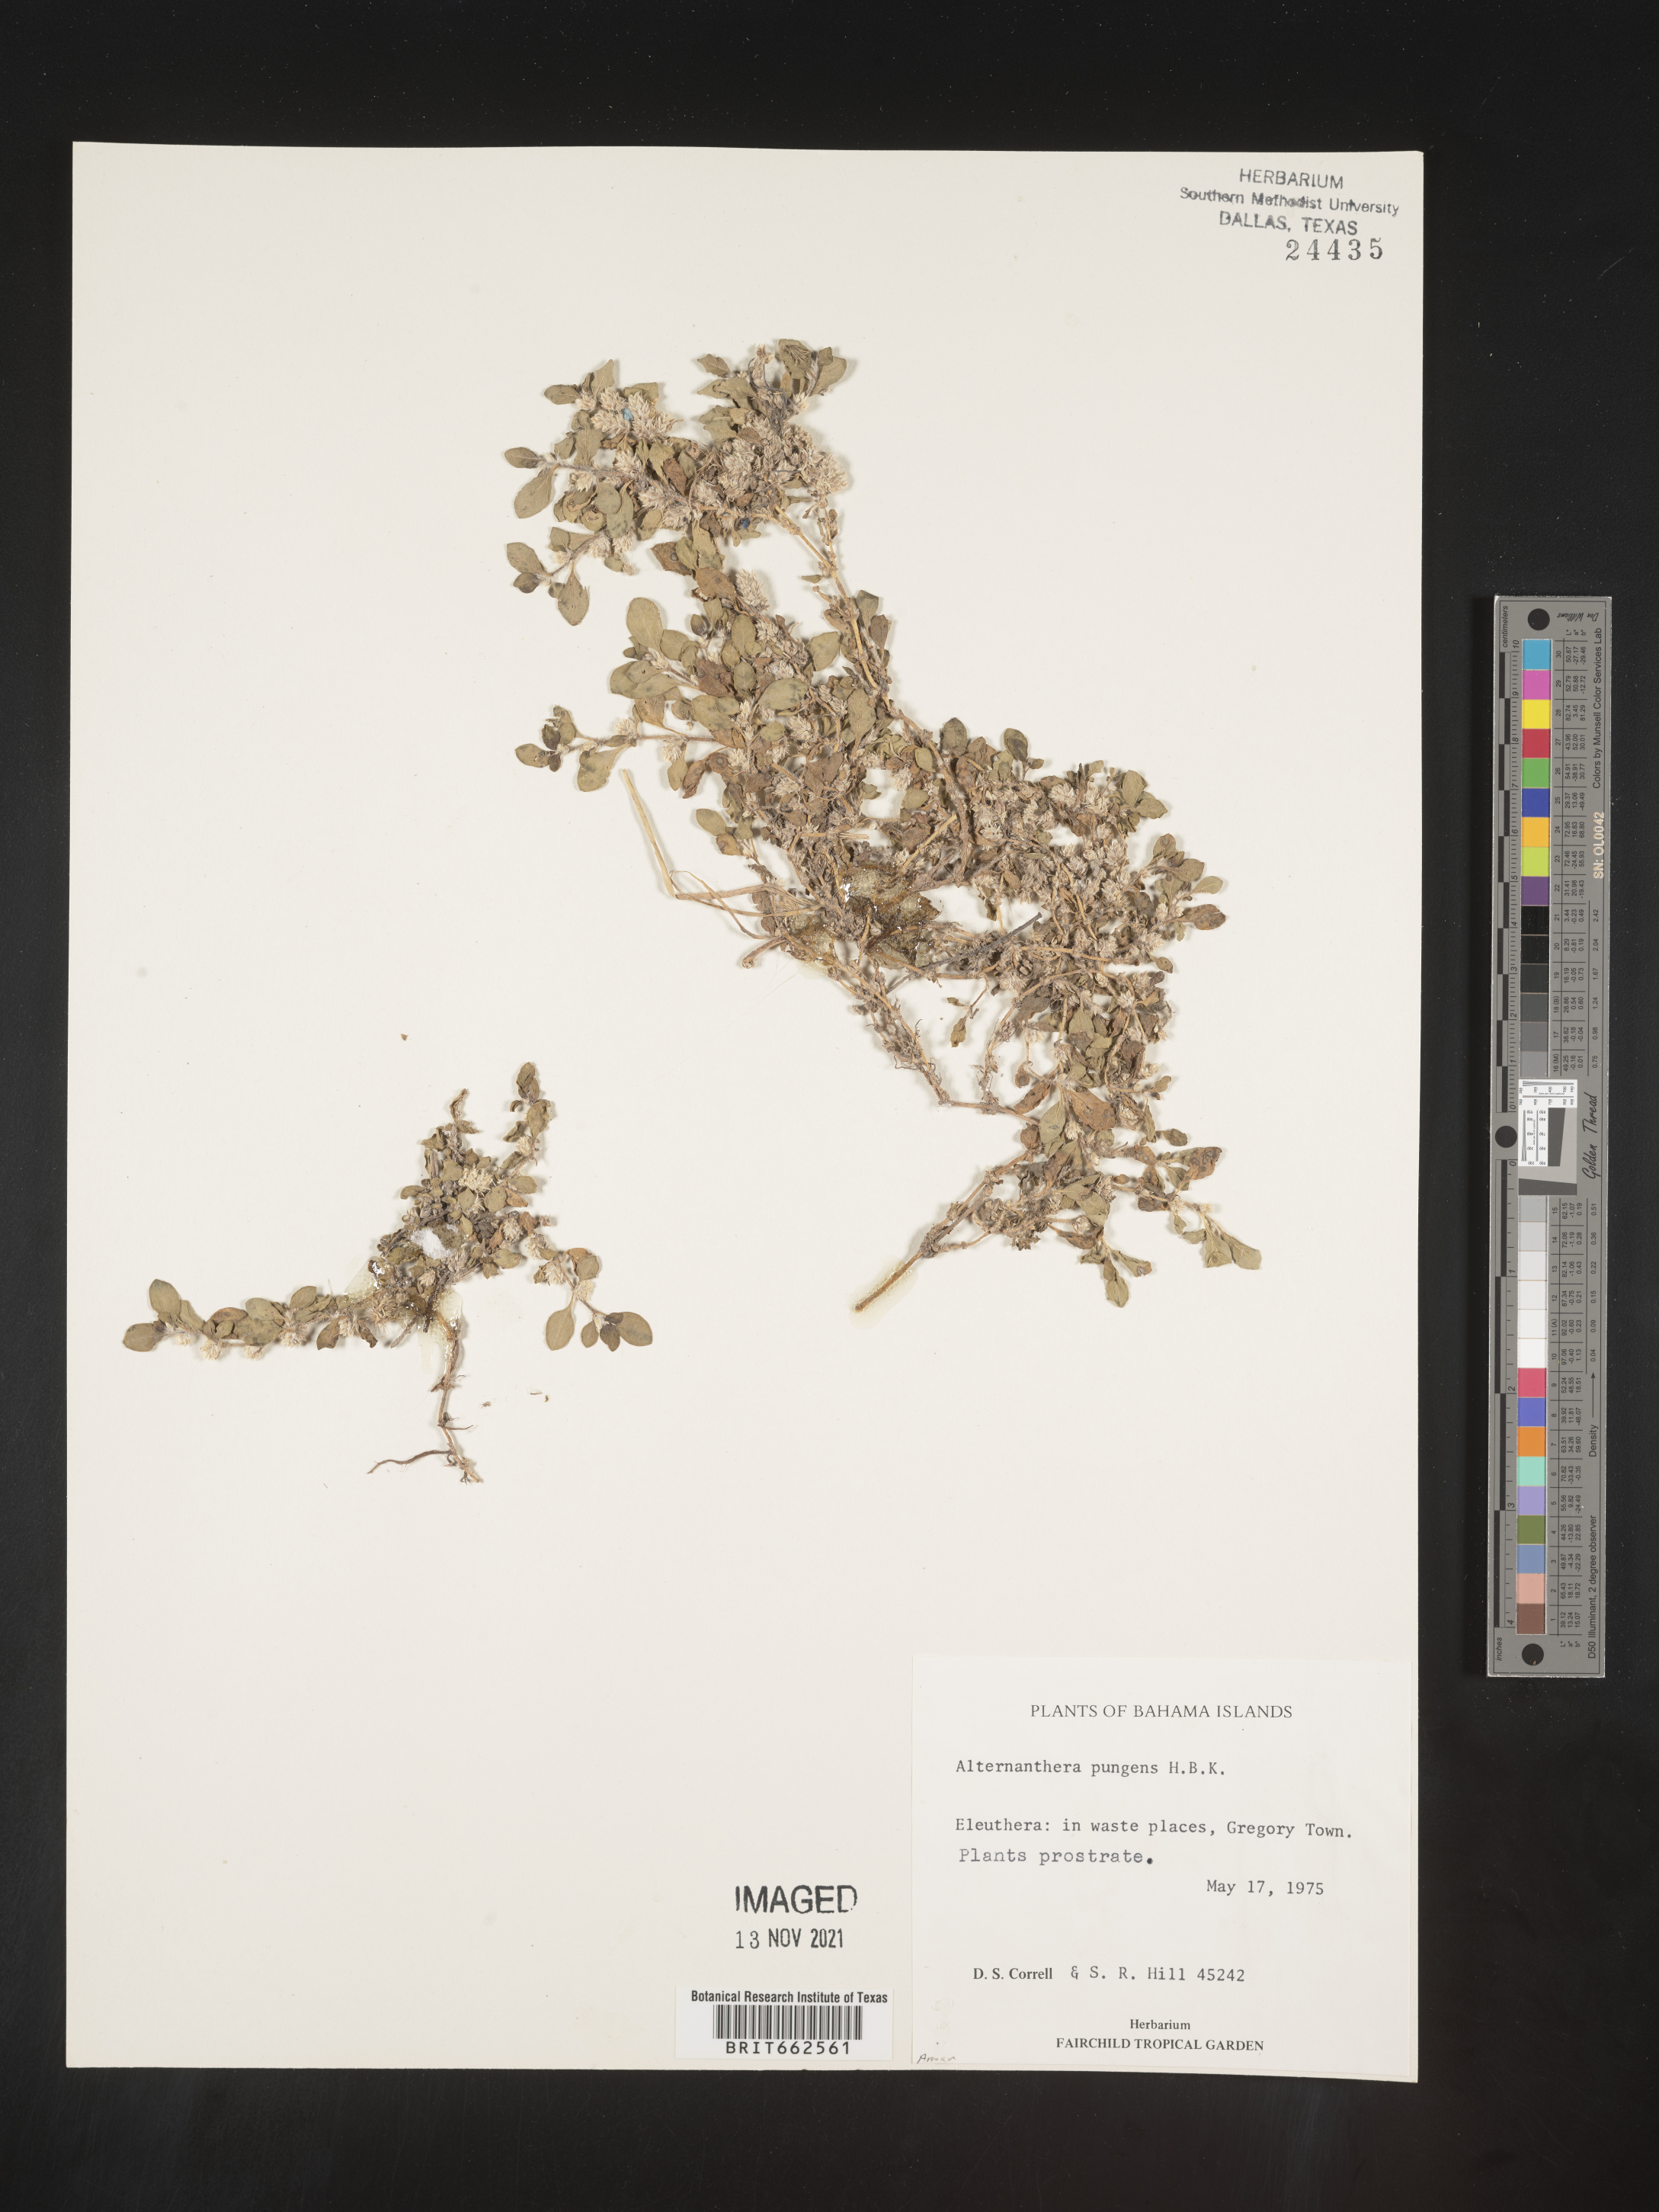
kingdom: Plantae
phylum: Tracheophyta
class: Magnoliopsida
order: Caryophyllales
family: Amaranthaceae
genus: Alternanthera
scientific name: Alternanthera
